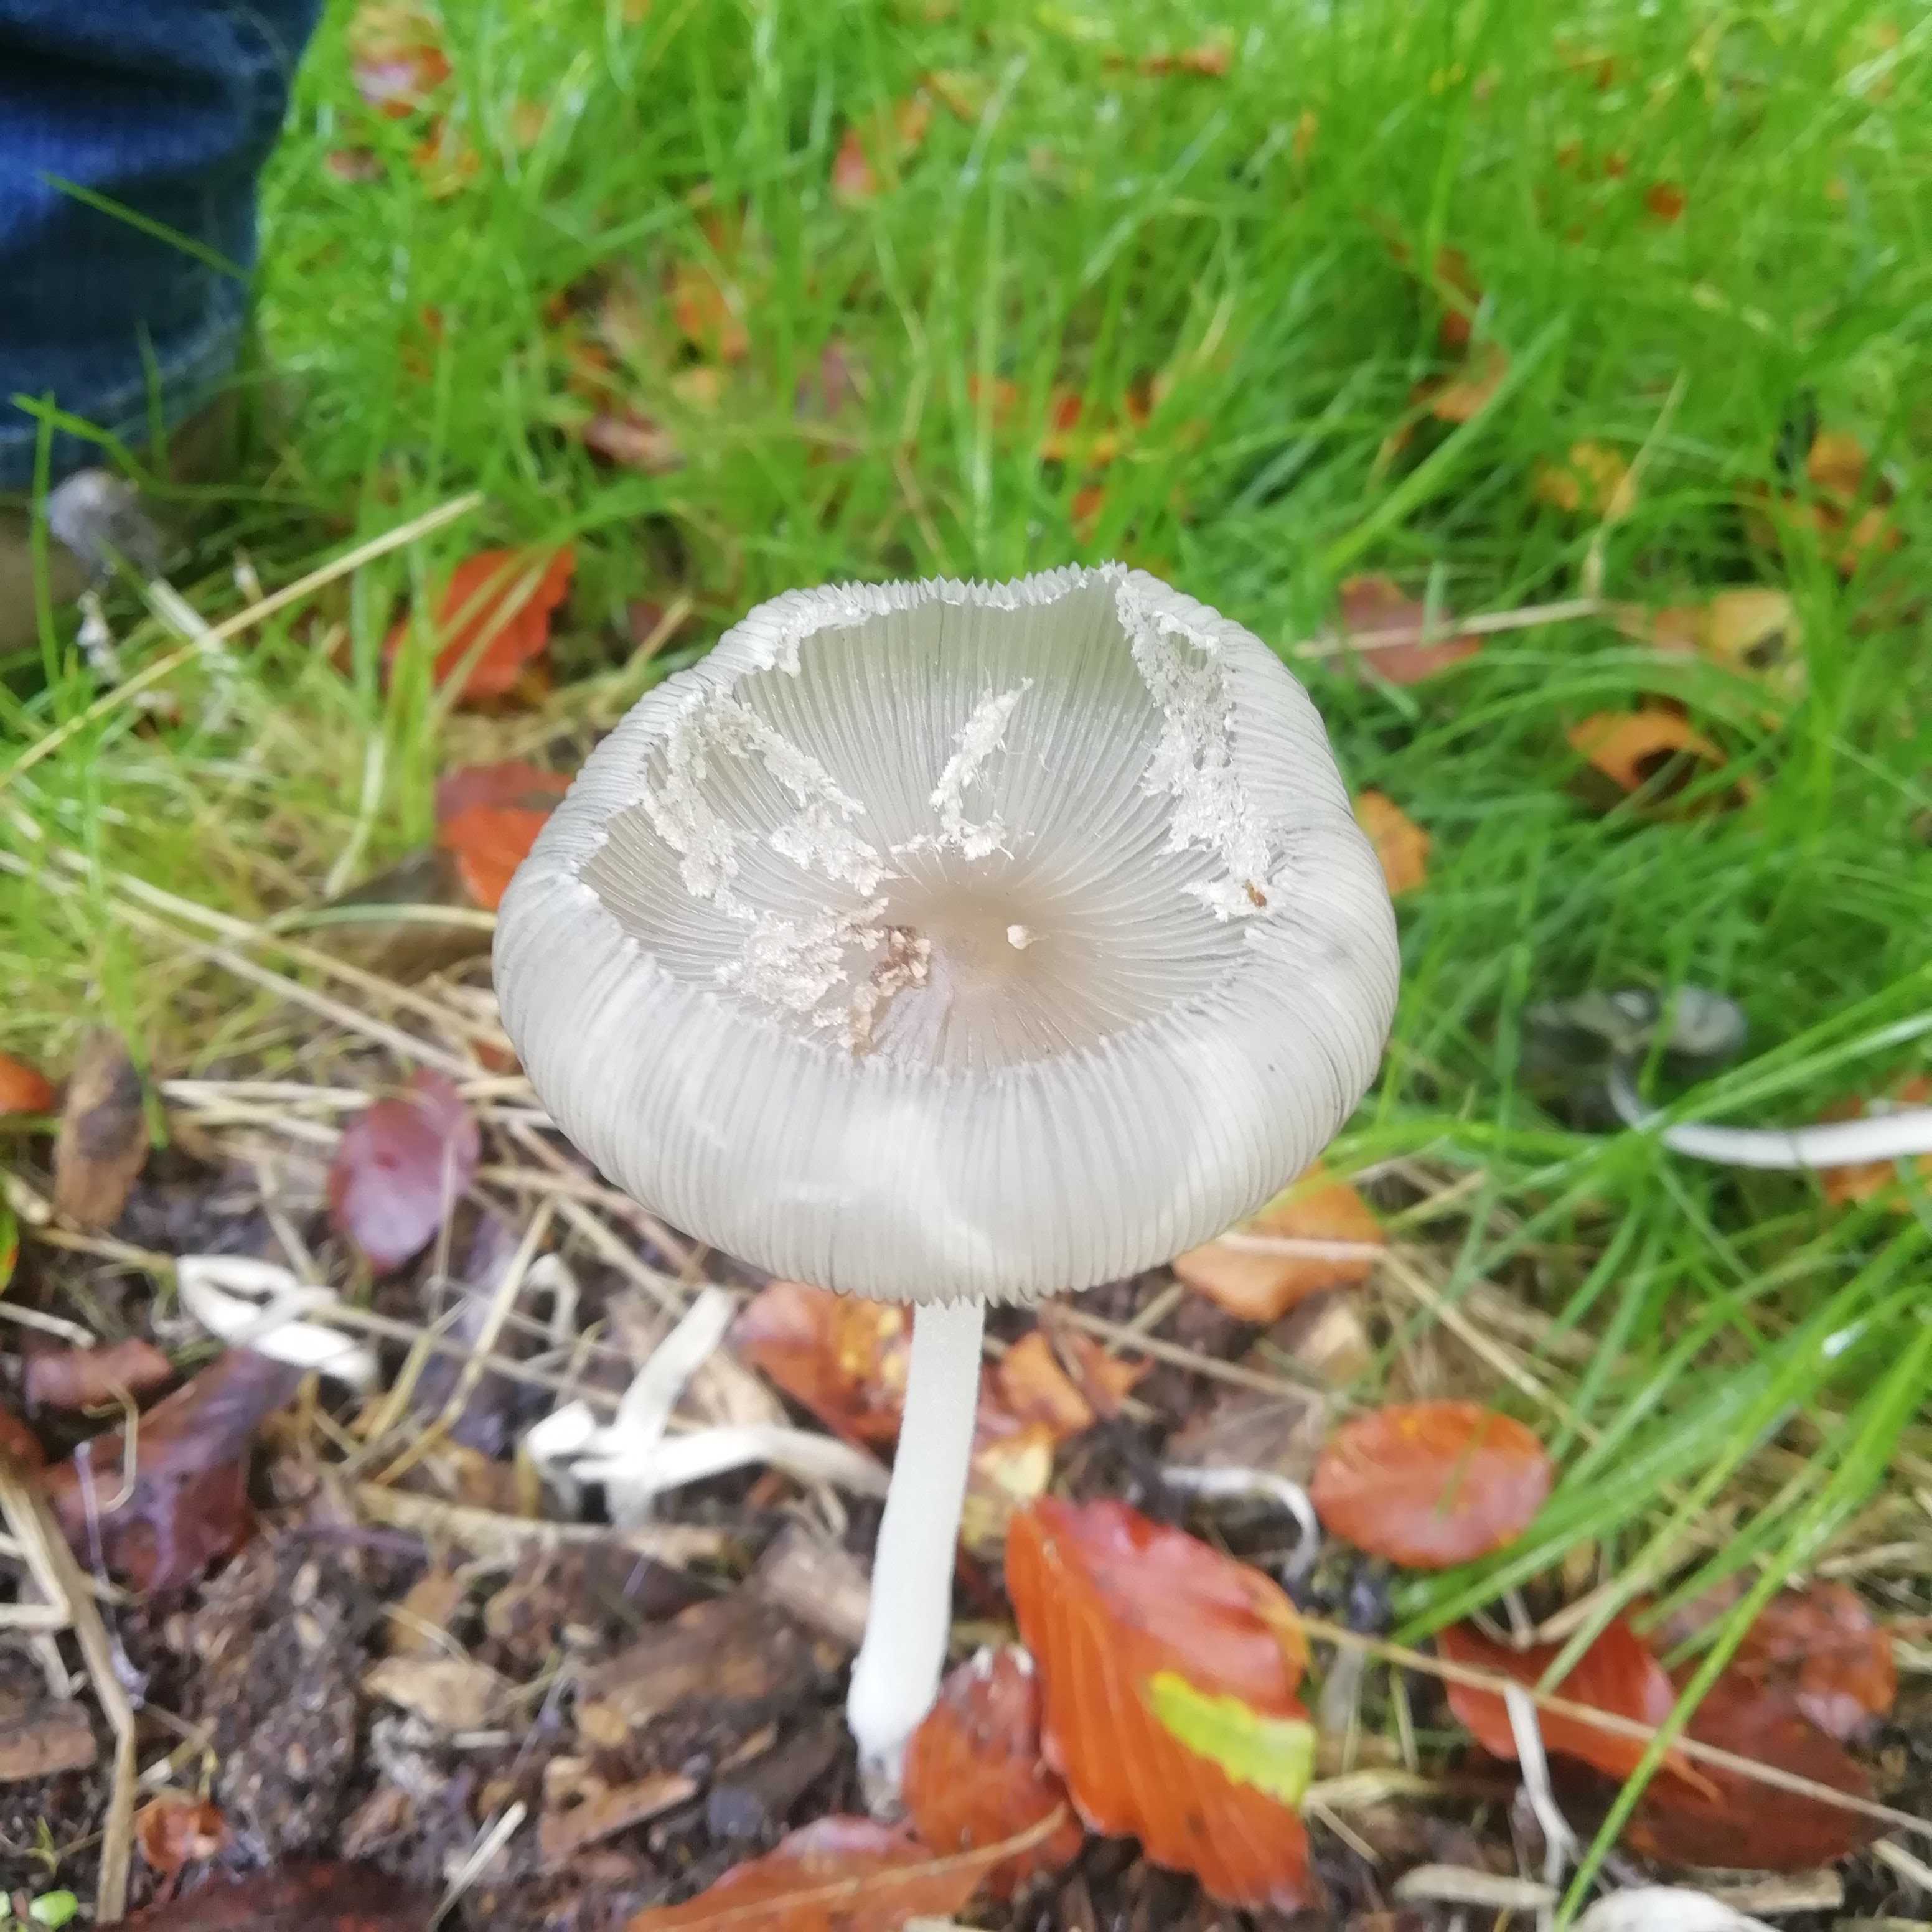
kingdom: Fungi
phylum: Basidiomycota
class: Agaricomycetes
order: Agaricales
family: Psathyrellaceae
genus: Coprinopsis
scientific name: Coprinopsis lagopus
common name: dunstokket blækhat
